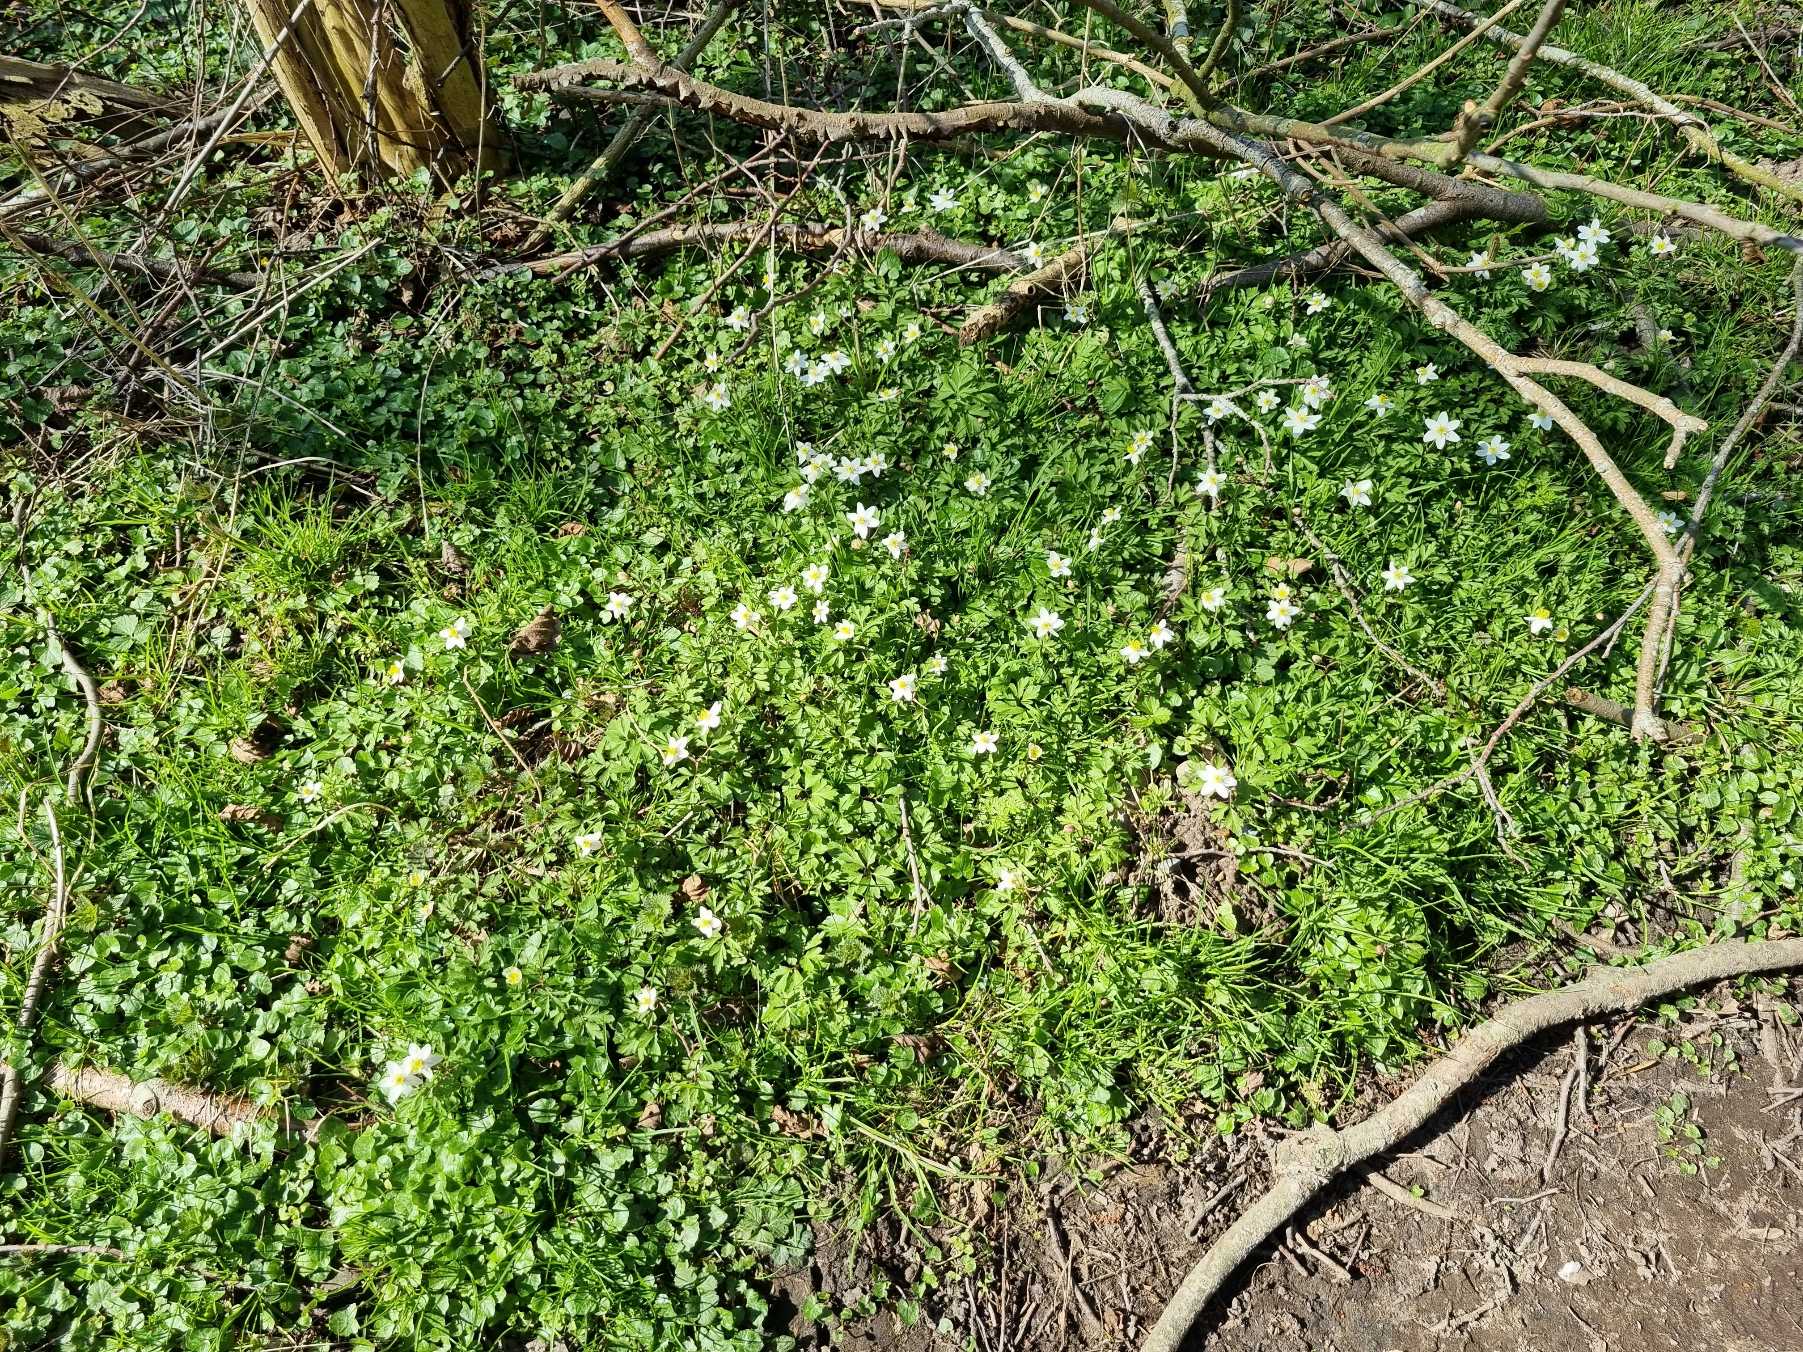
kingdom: Plantae
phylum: Tracheophyta
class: Magnoliopsida
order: Ranunculales
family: Ranunculaceae
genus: Anemone
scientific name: Anemone nemorosa
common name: Hvid anemone
